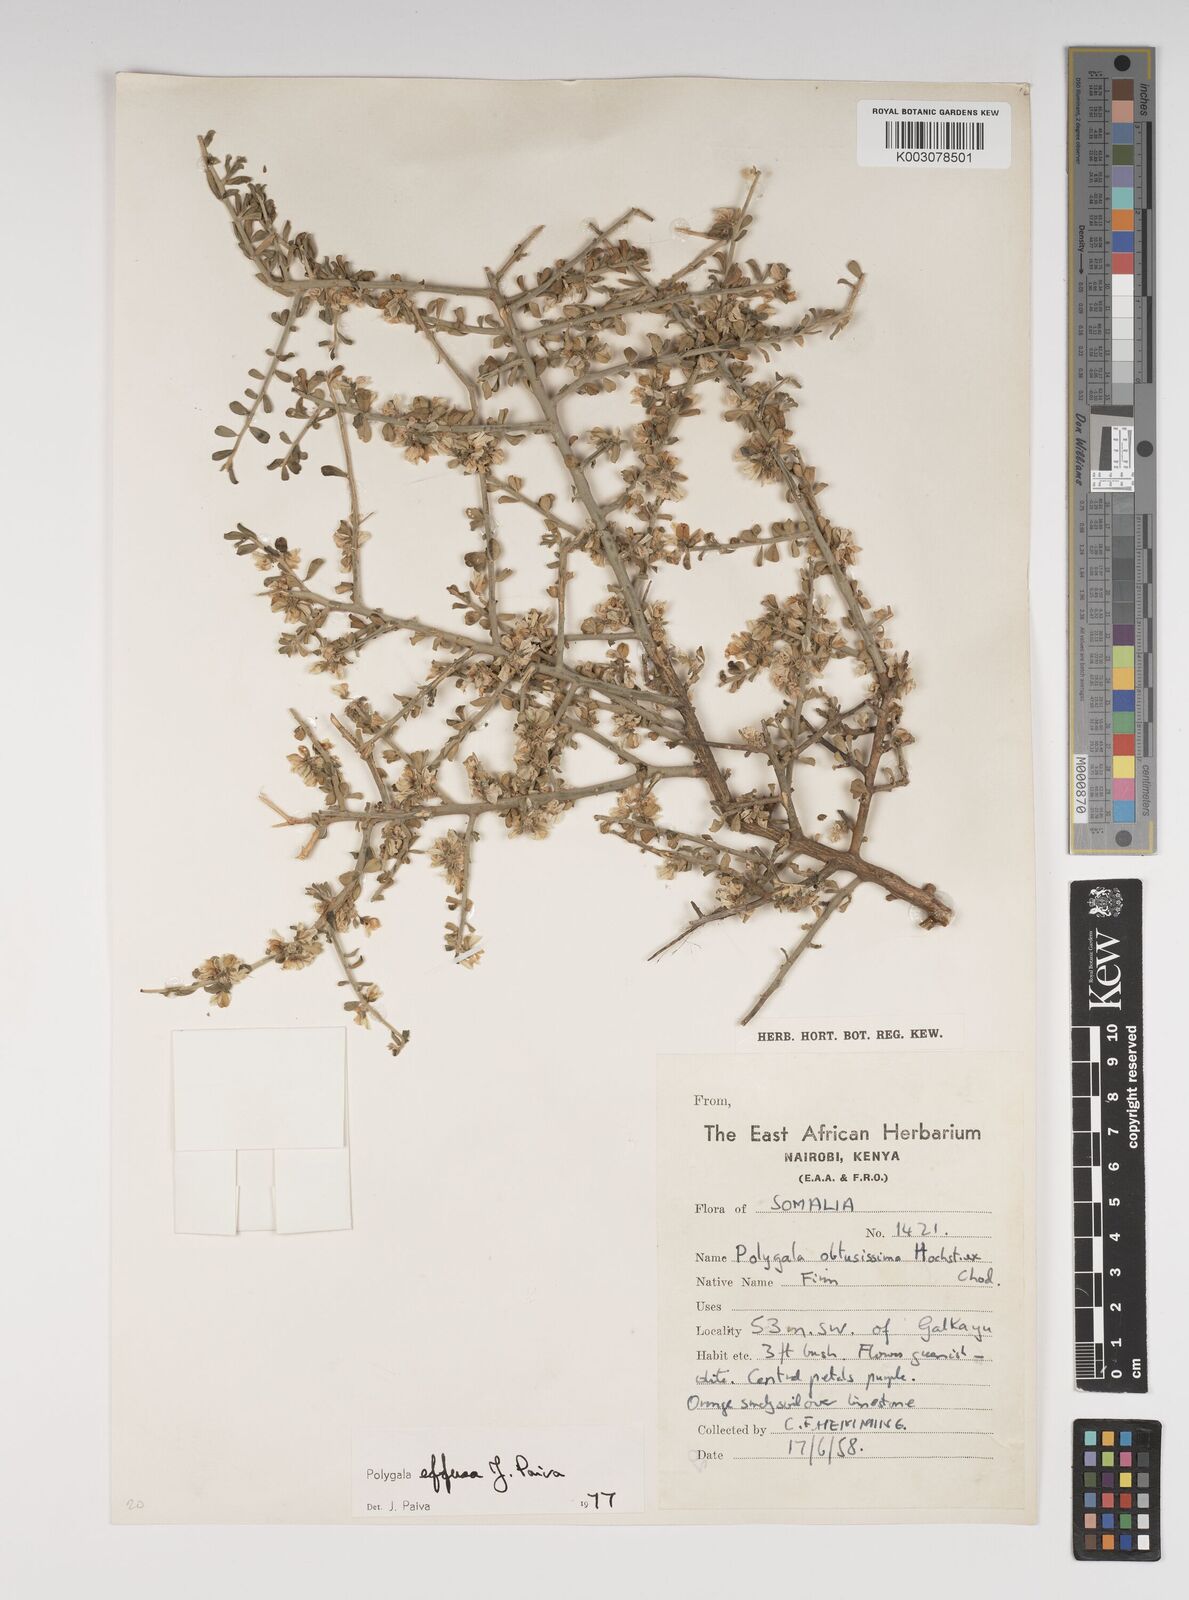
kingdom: Plantae
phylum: Tracheophyta
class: Magnoliopsida
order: Fabales
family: Polygalaceae
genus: Polygala
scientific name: Polygala effusa
